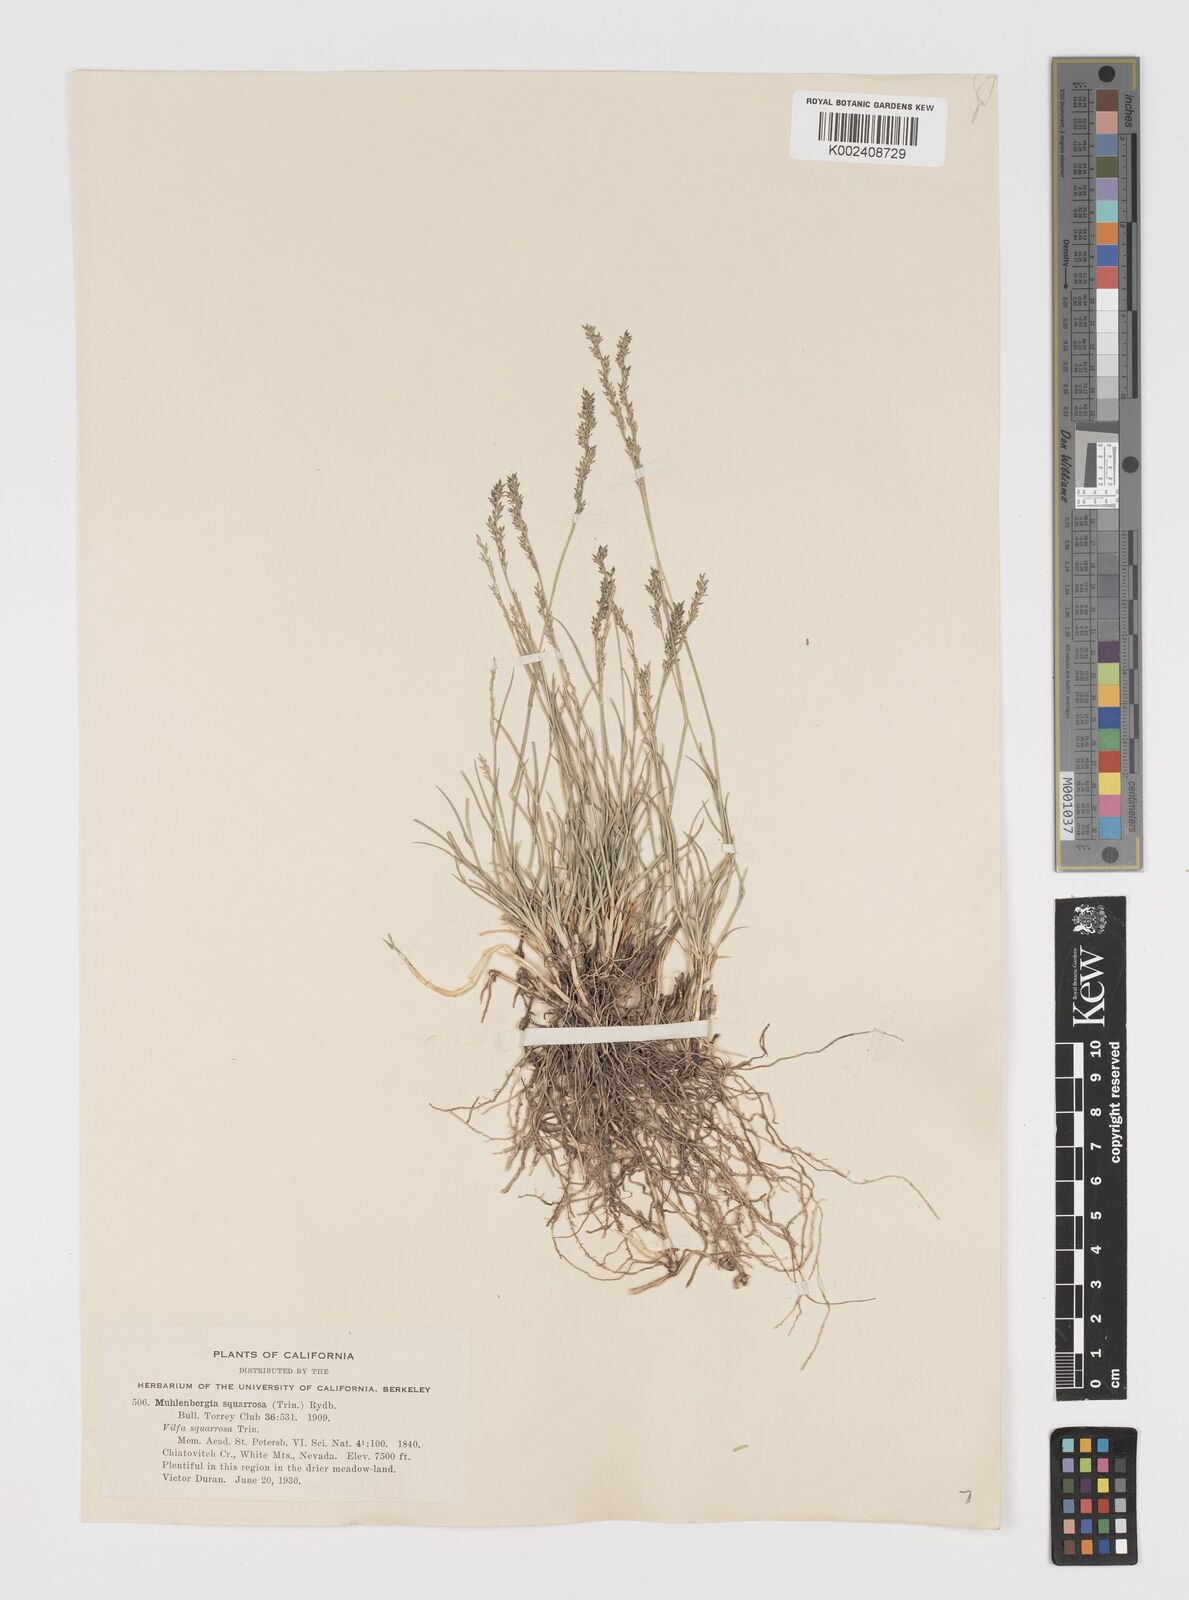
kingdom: Plantae
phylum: Tracheophyta
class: Liliopsida
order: Poales
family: Poaceae
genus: Muhlenbergia
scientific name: Muhlenbergia richardsonis
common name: Mat muhly
